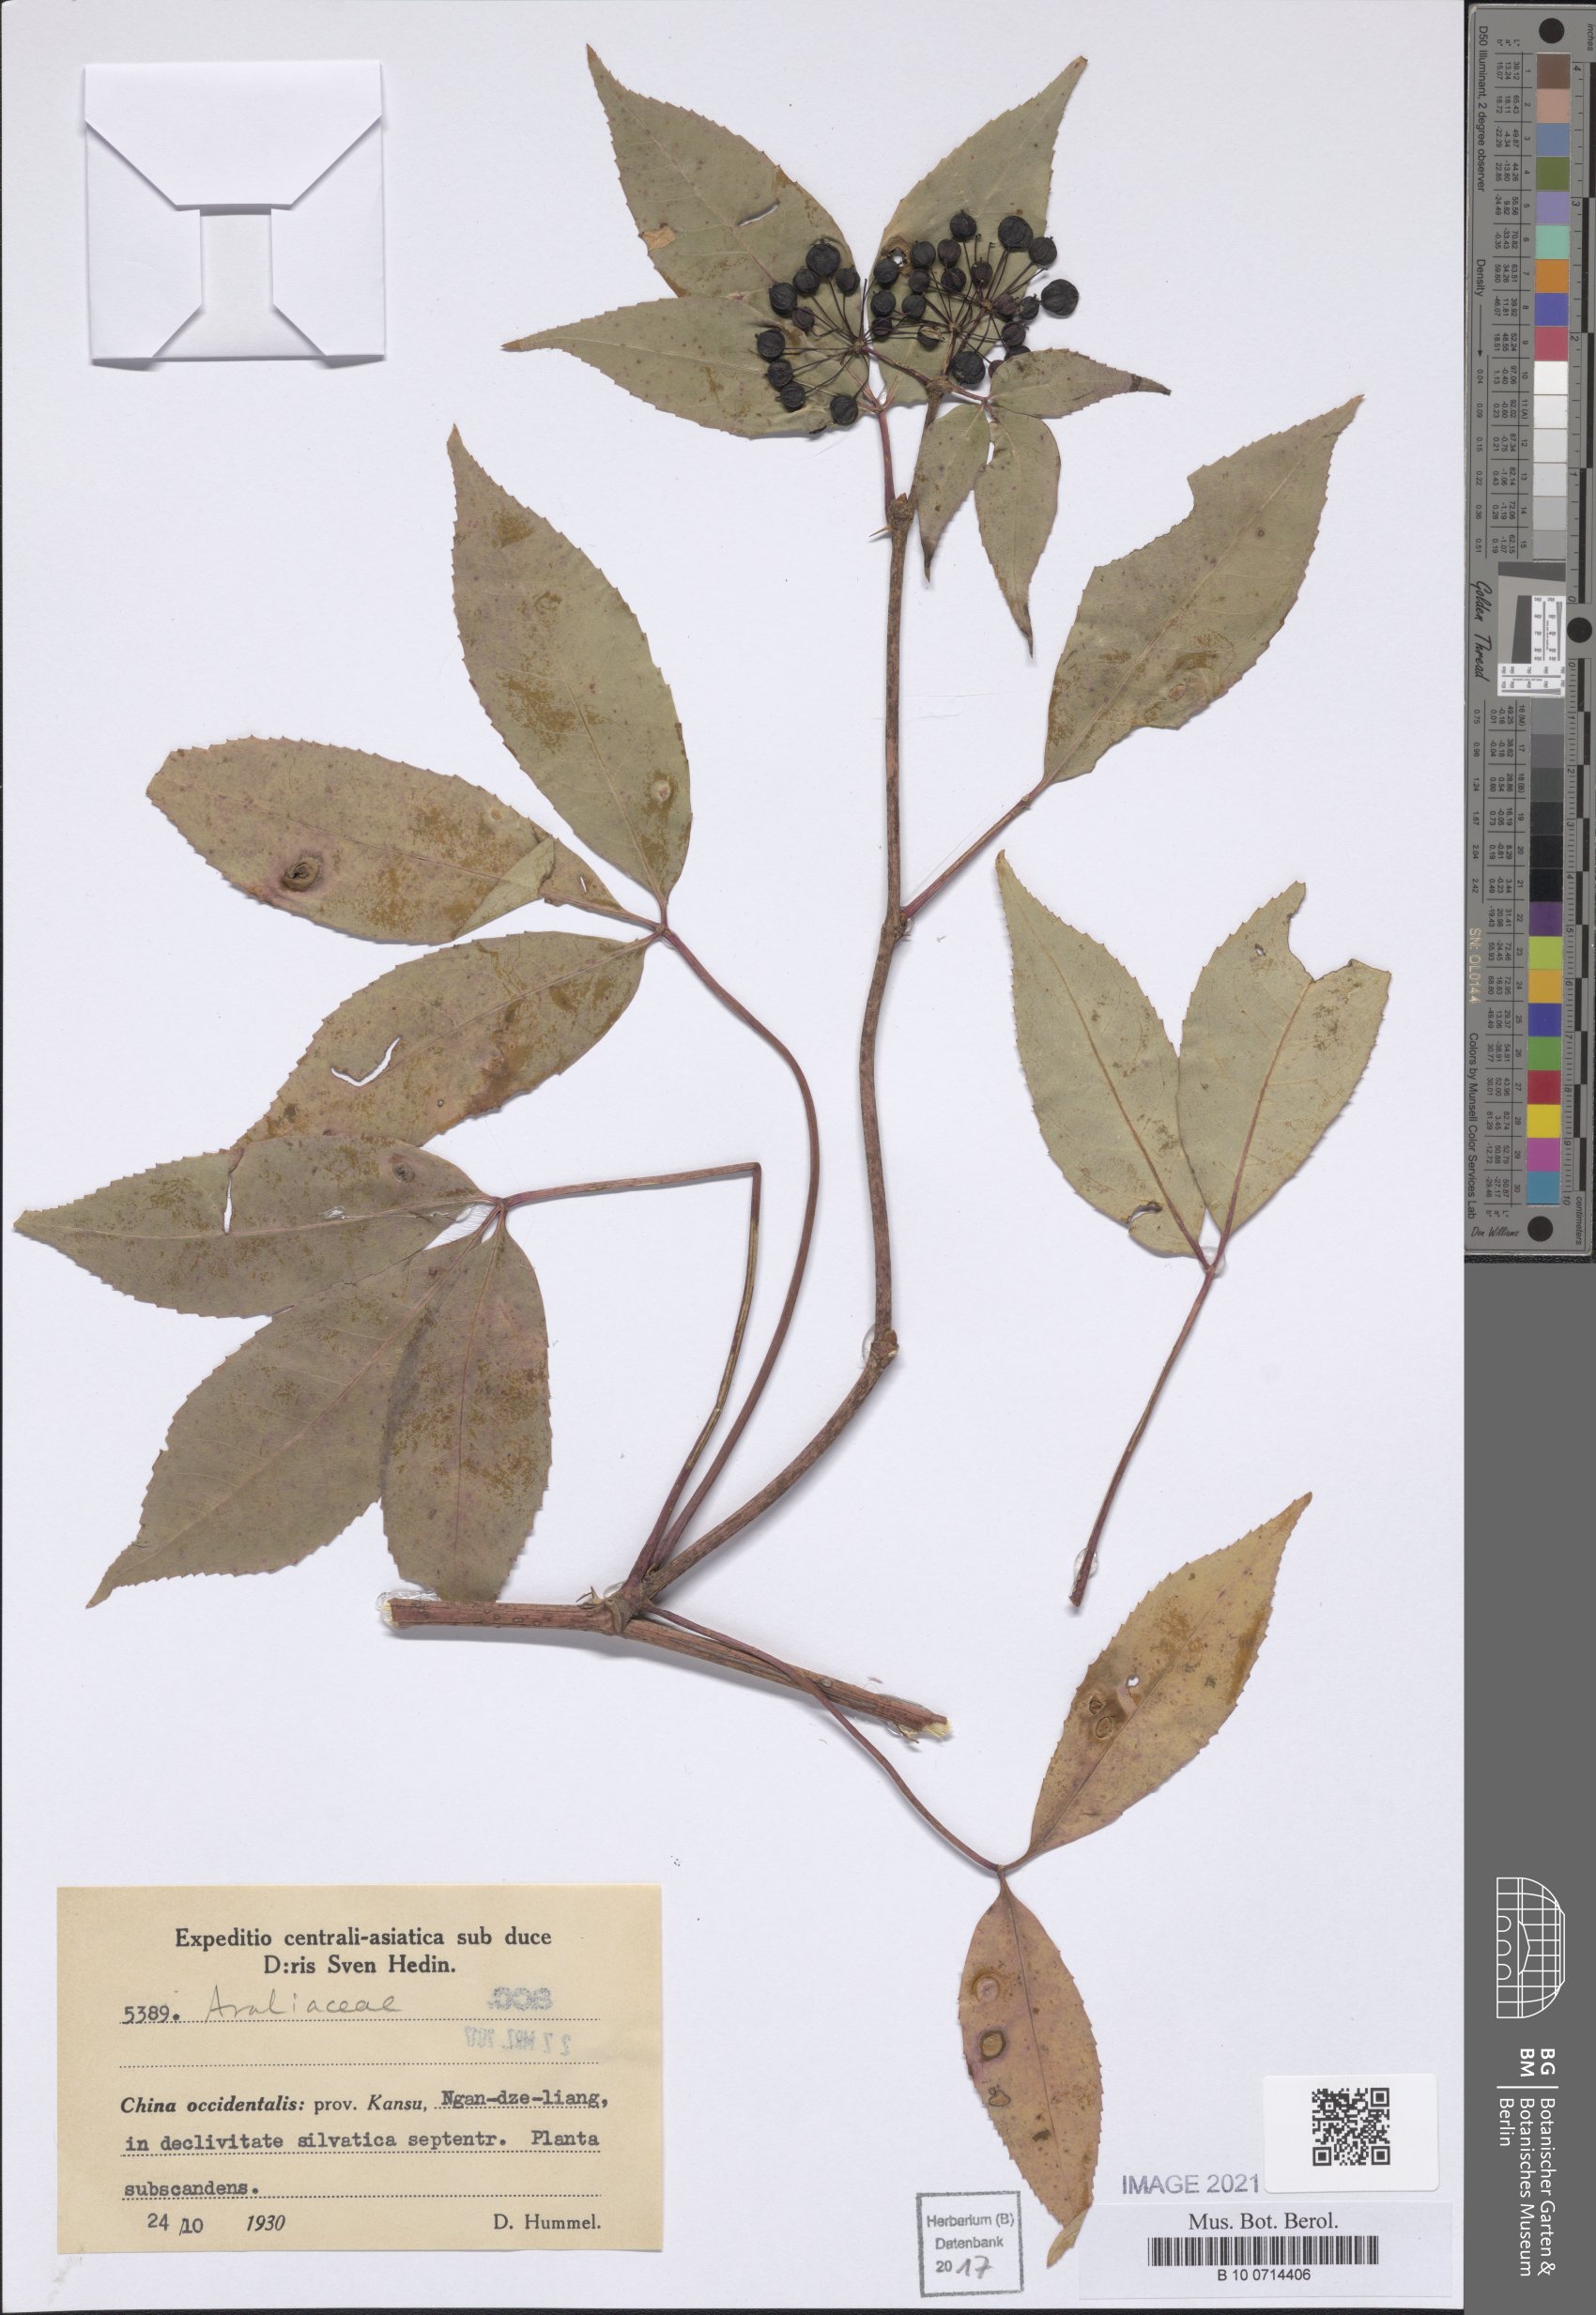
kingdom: Plantae
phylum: Tracheophyta
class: Magnoliopsida
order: Apiales
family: Araliaceae
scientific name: Araliaceae
